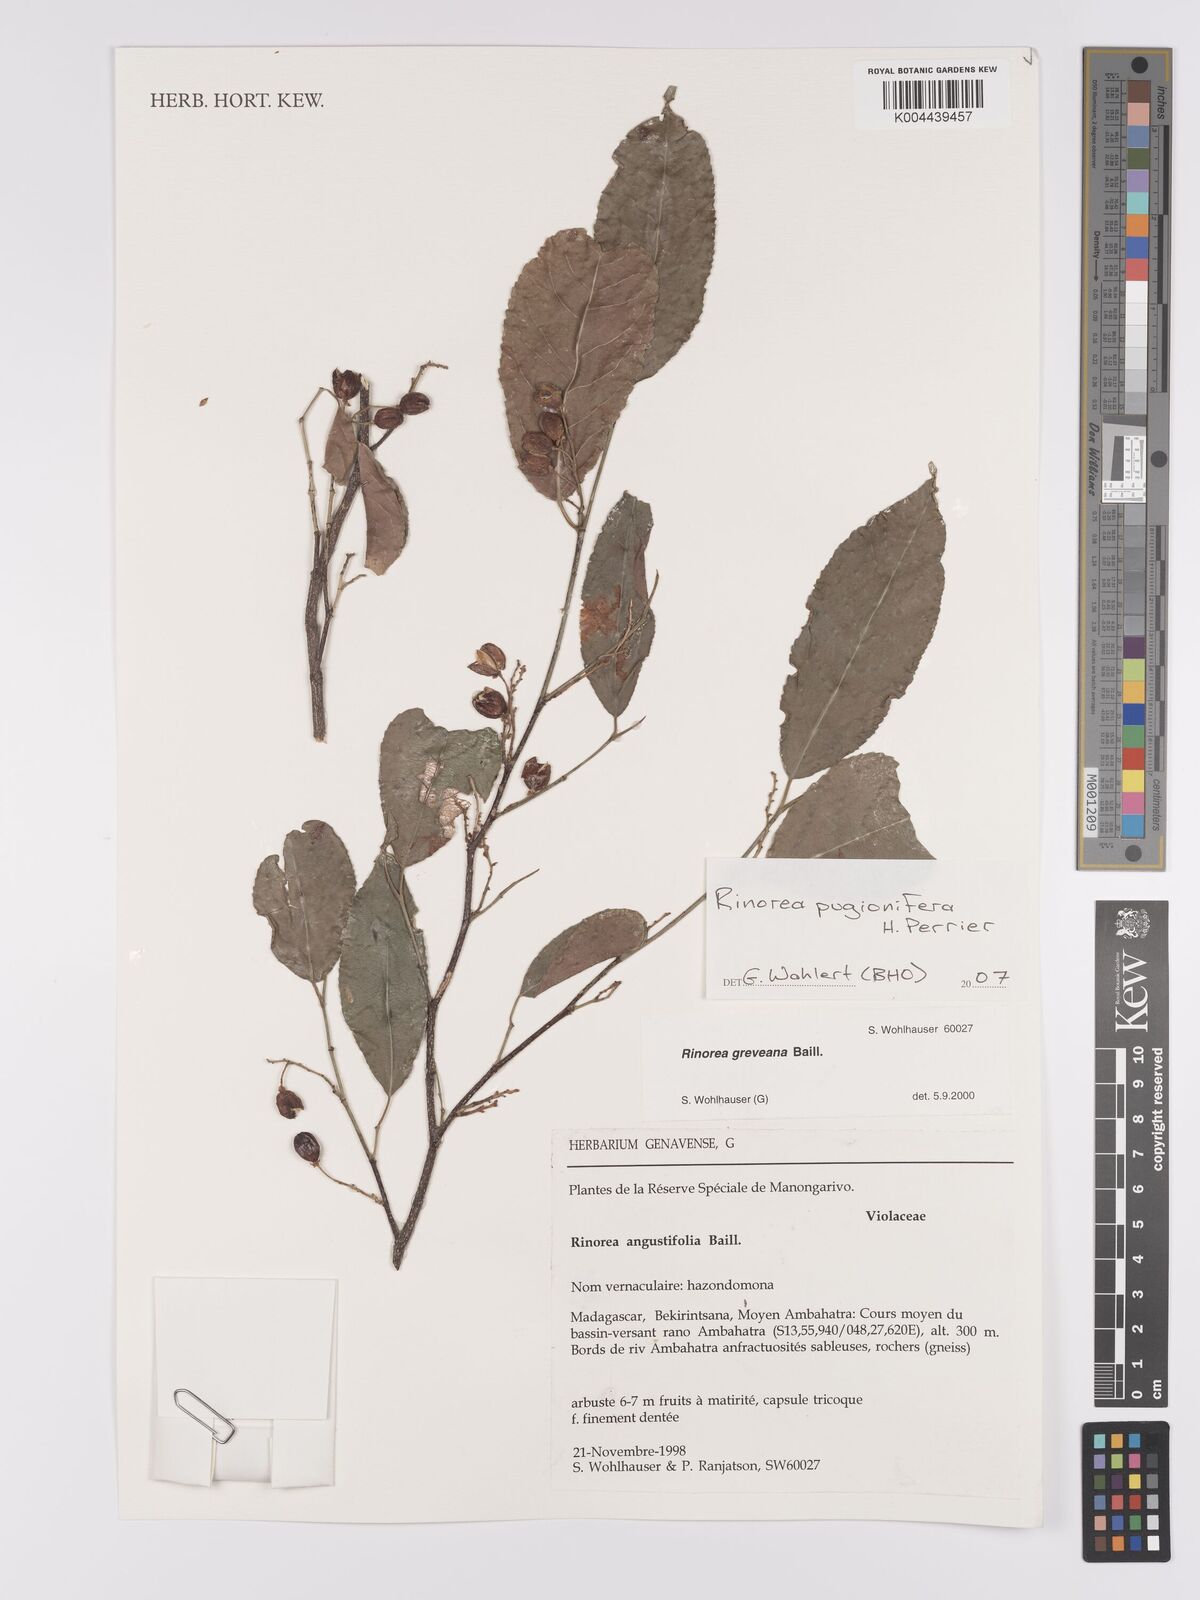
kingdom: Plantae
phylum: Tracheophyta
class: Magnoliopsida
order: Malpighiales
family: Violaceae
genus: Rinorea
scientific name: Rinorea pugionifera
